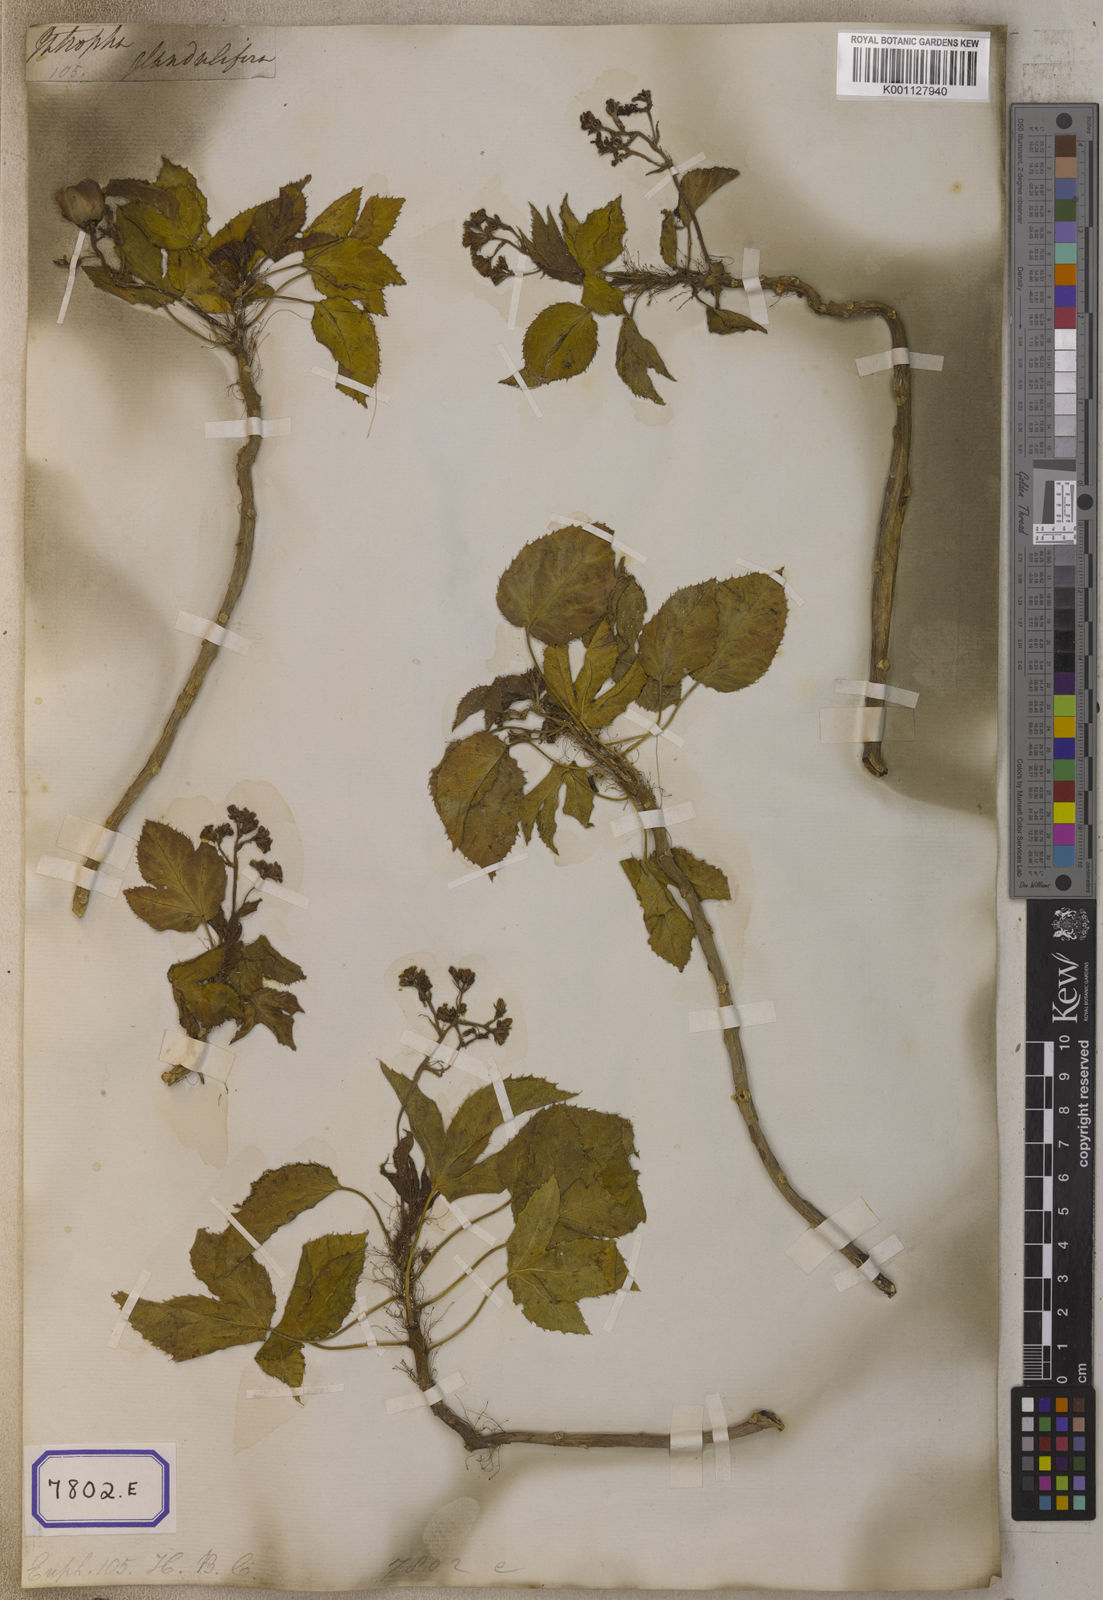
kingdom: Plantae
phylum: Tracheophyta
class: Magnoliopsida
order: Malpighiales
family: Euphorbiaceae
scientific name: Euphorbiaceae
